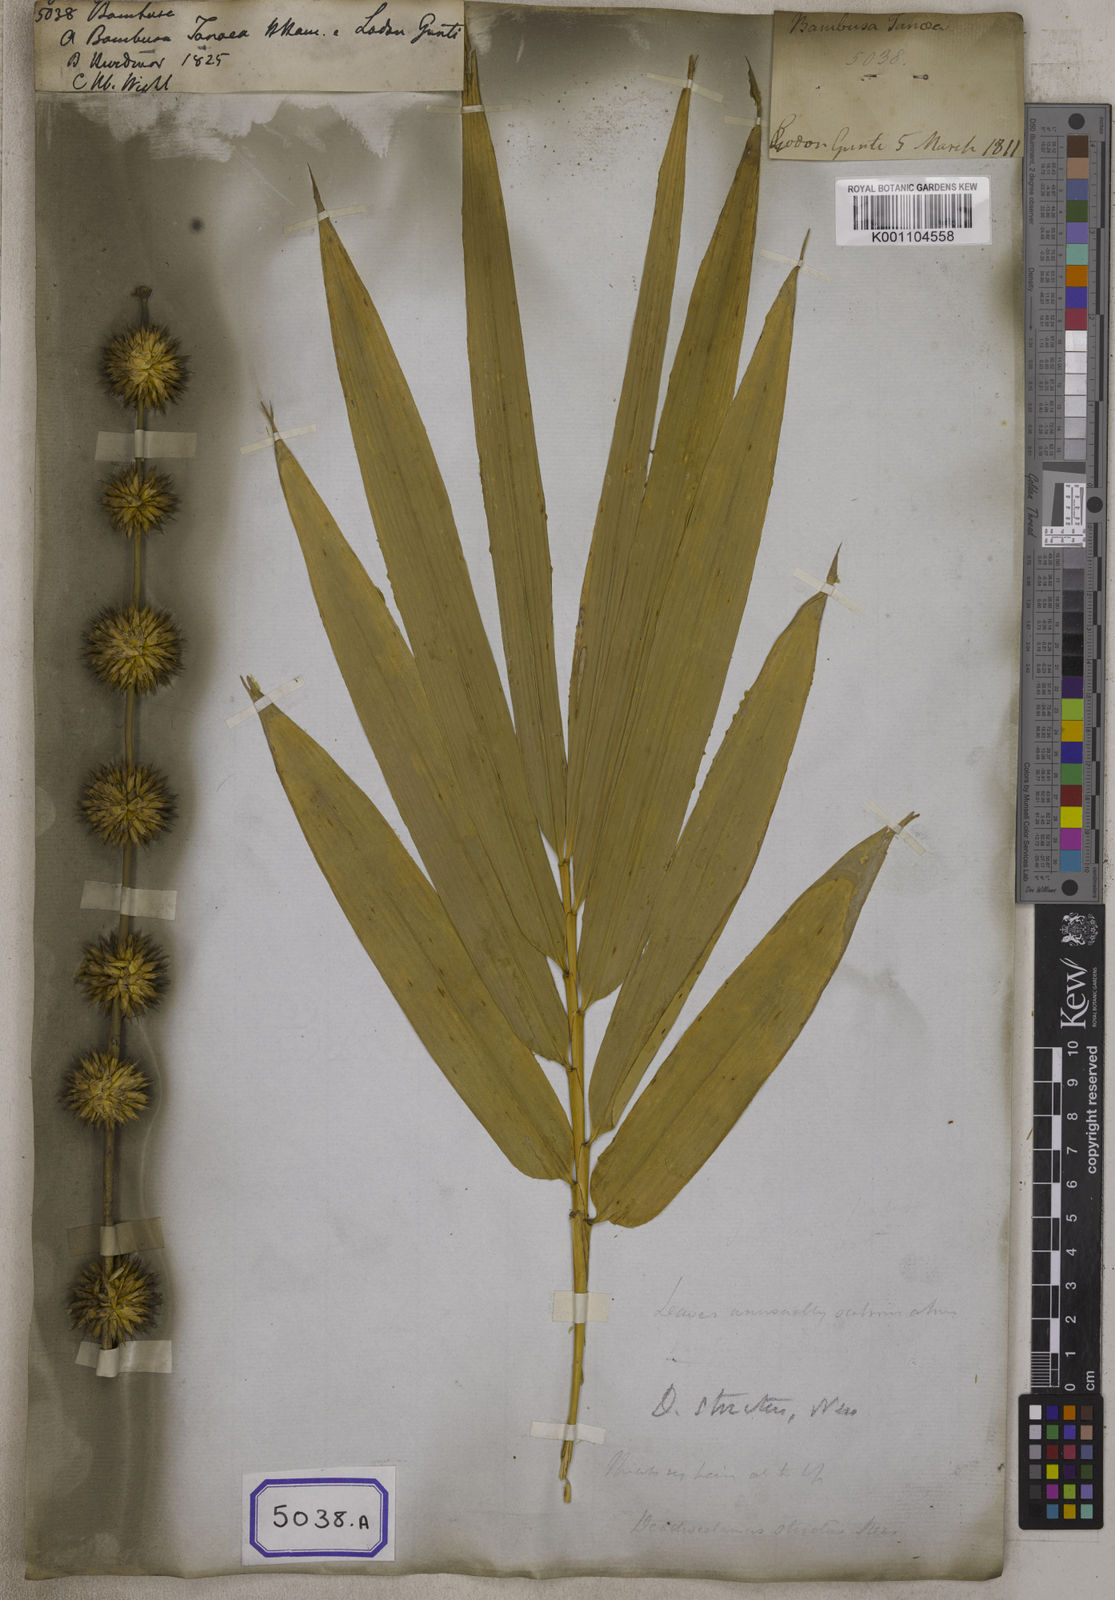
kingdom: Plantae
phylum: Tracheophyta
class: Liliopsida
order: Poales
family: Poaceae
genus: Bambusa
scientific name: Bambusa
